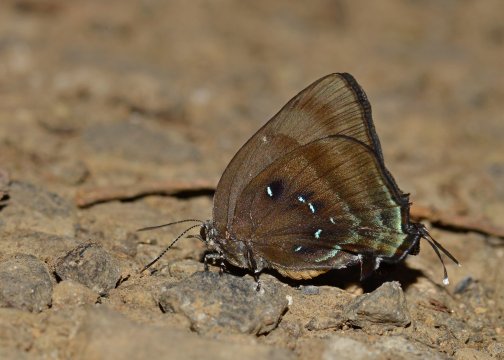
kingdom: Animalia
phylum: Arthropoda
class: Insecta
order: Lepidoptera
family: Lycaenidae
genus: Thecla
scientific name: Thecla lisus
